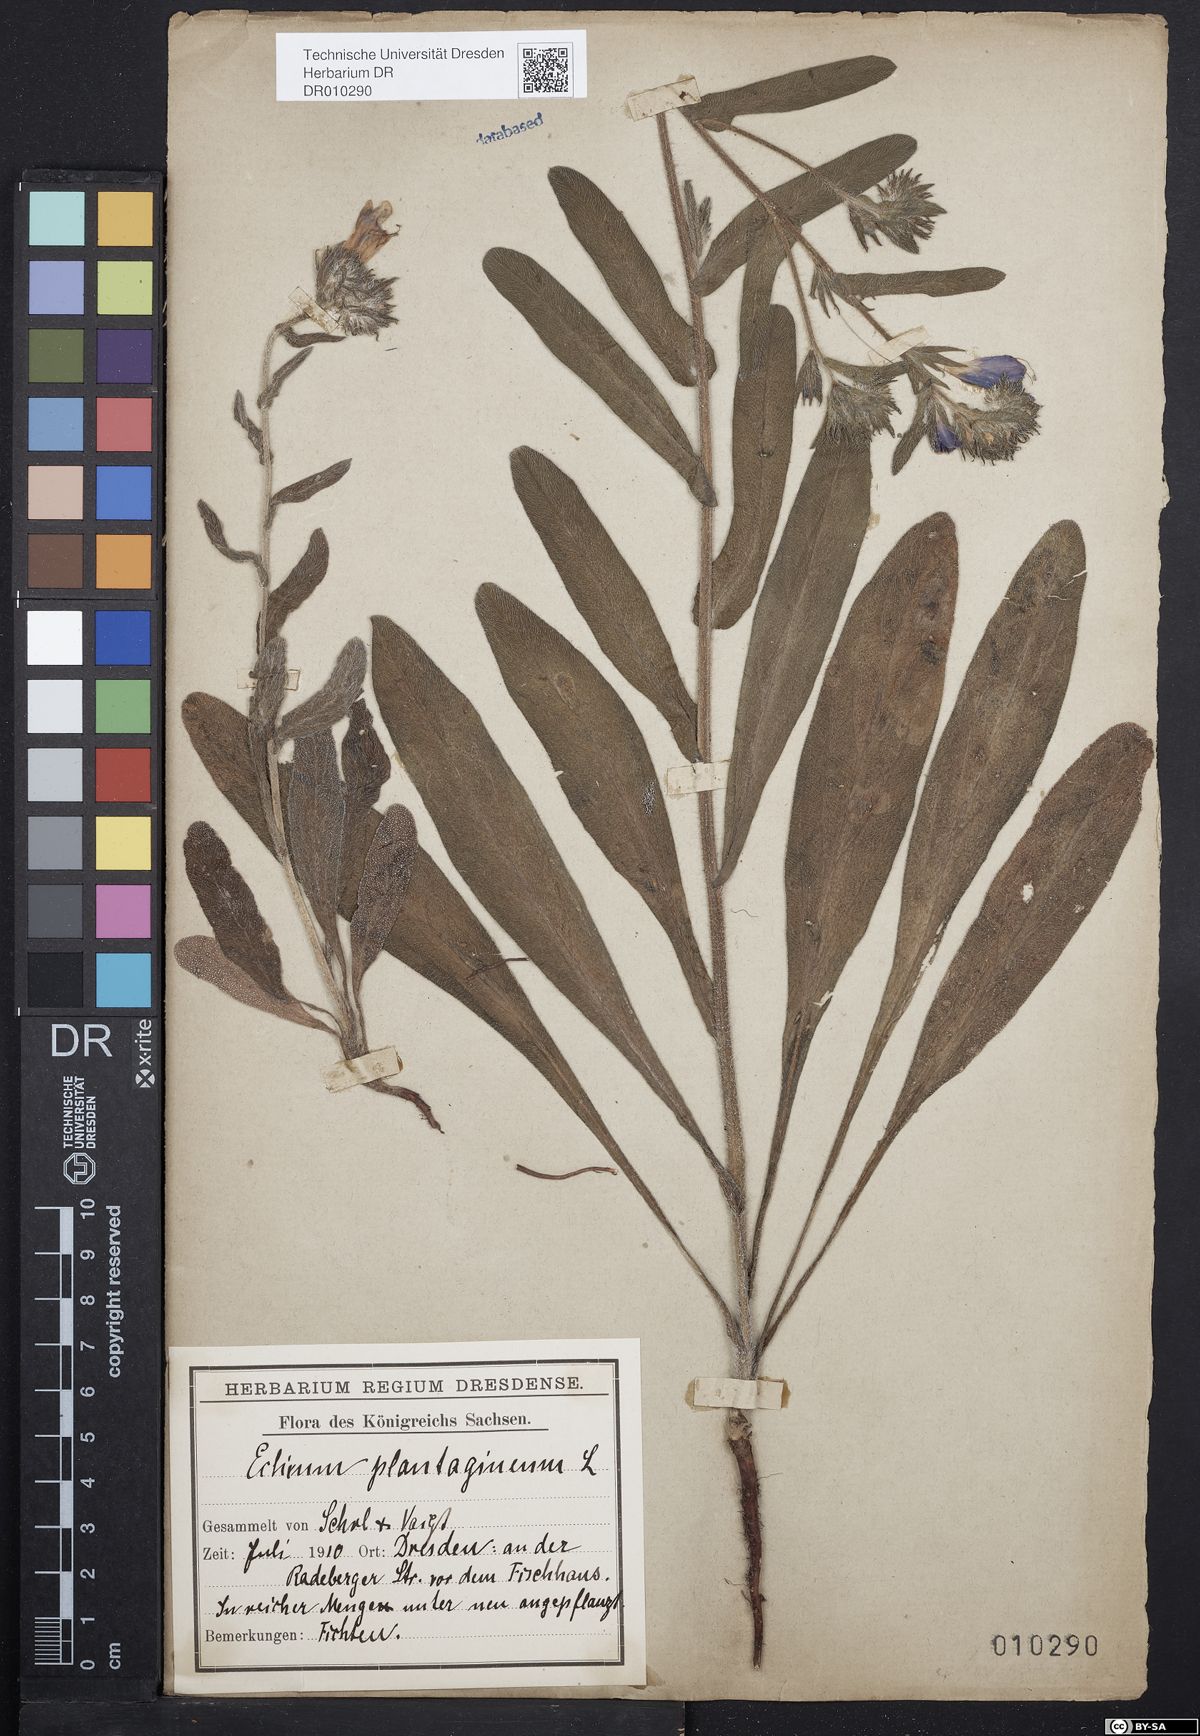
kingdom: Plantae
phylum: Tracheophyta
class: Magnoliopsida
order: Boraginales
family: Boraginaceae
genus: Echium
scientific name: Echium plantagineum
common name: Purple viper's-bugloss
